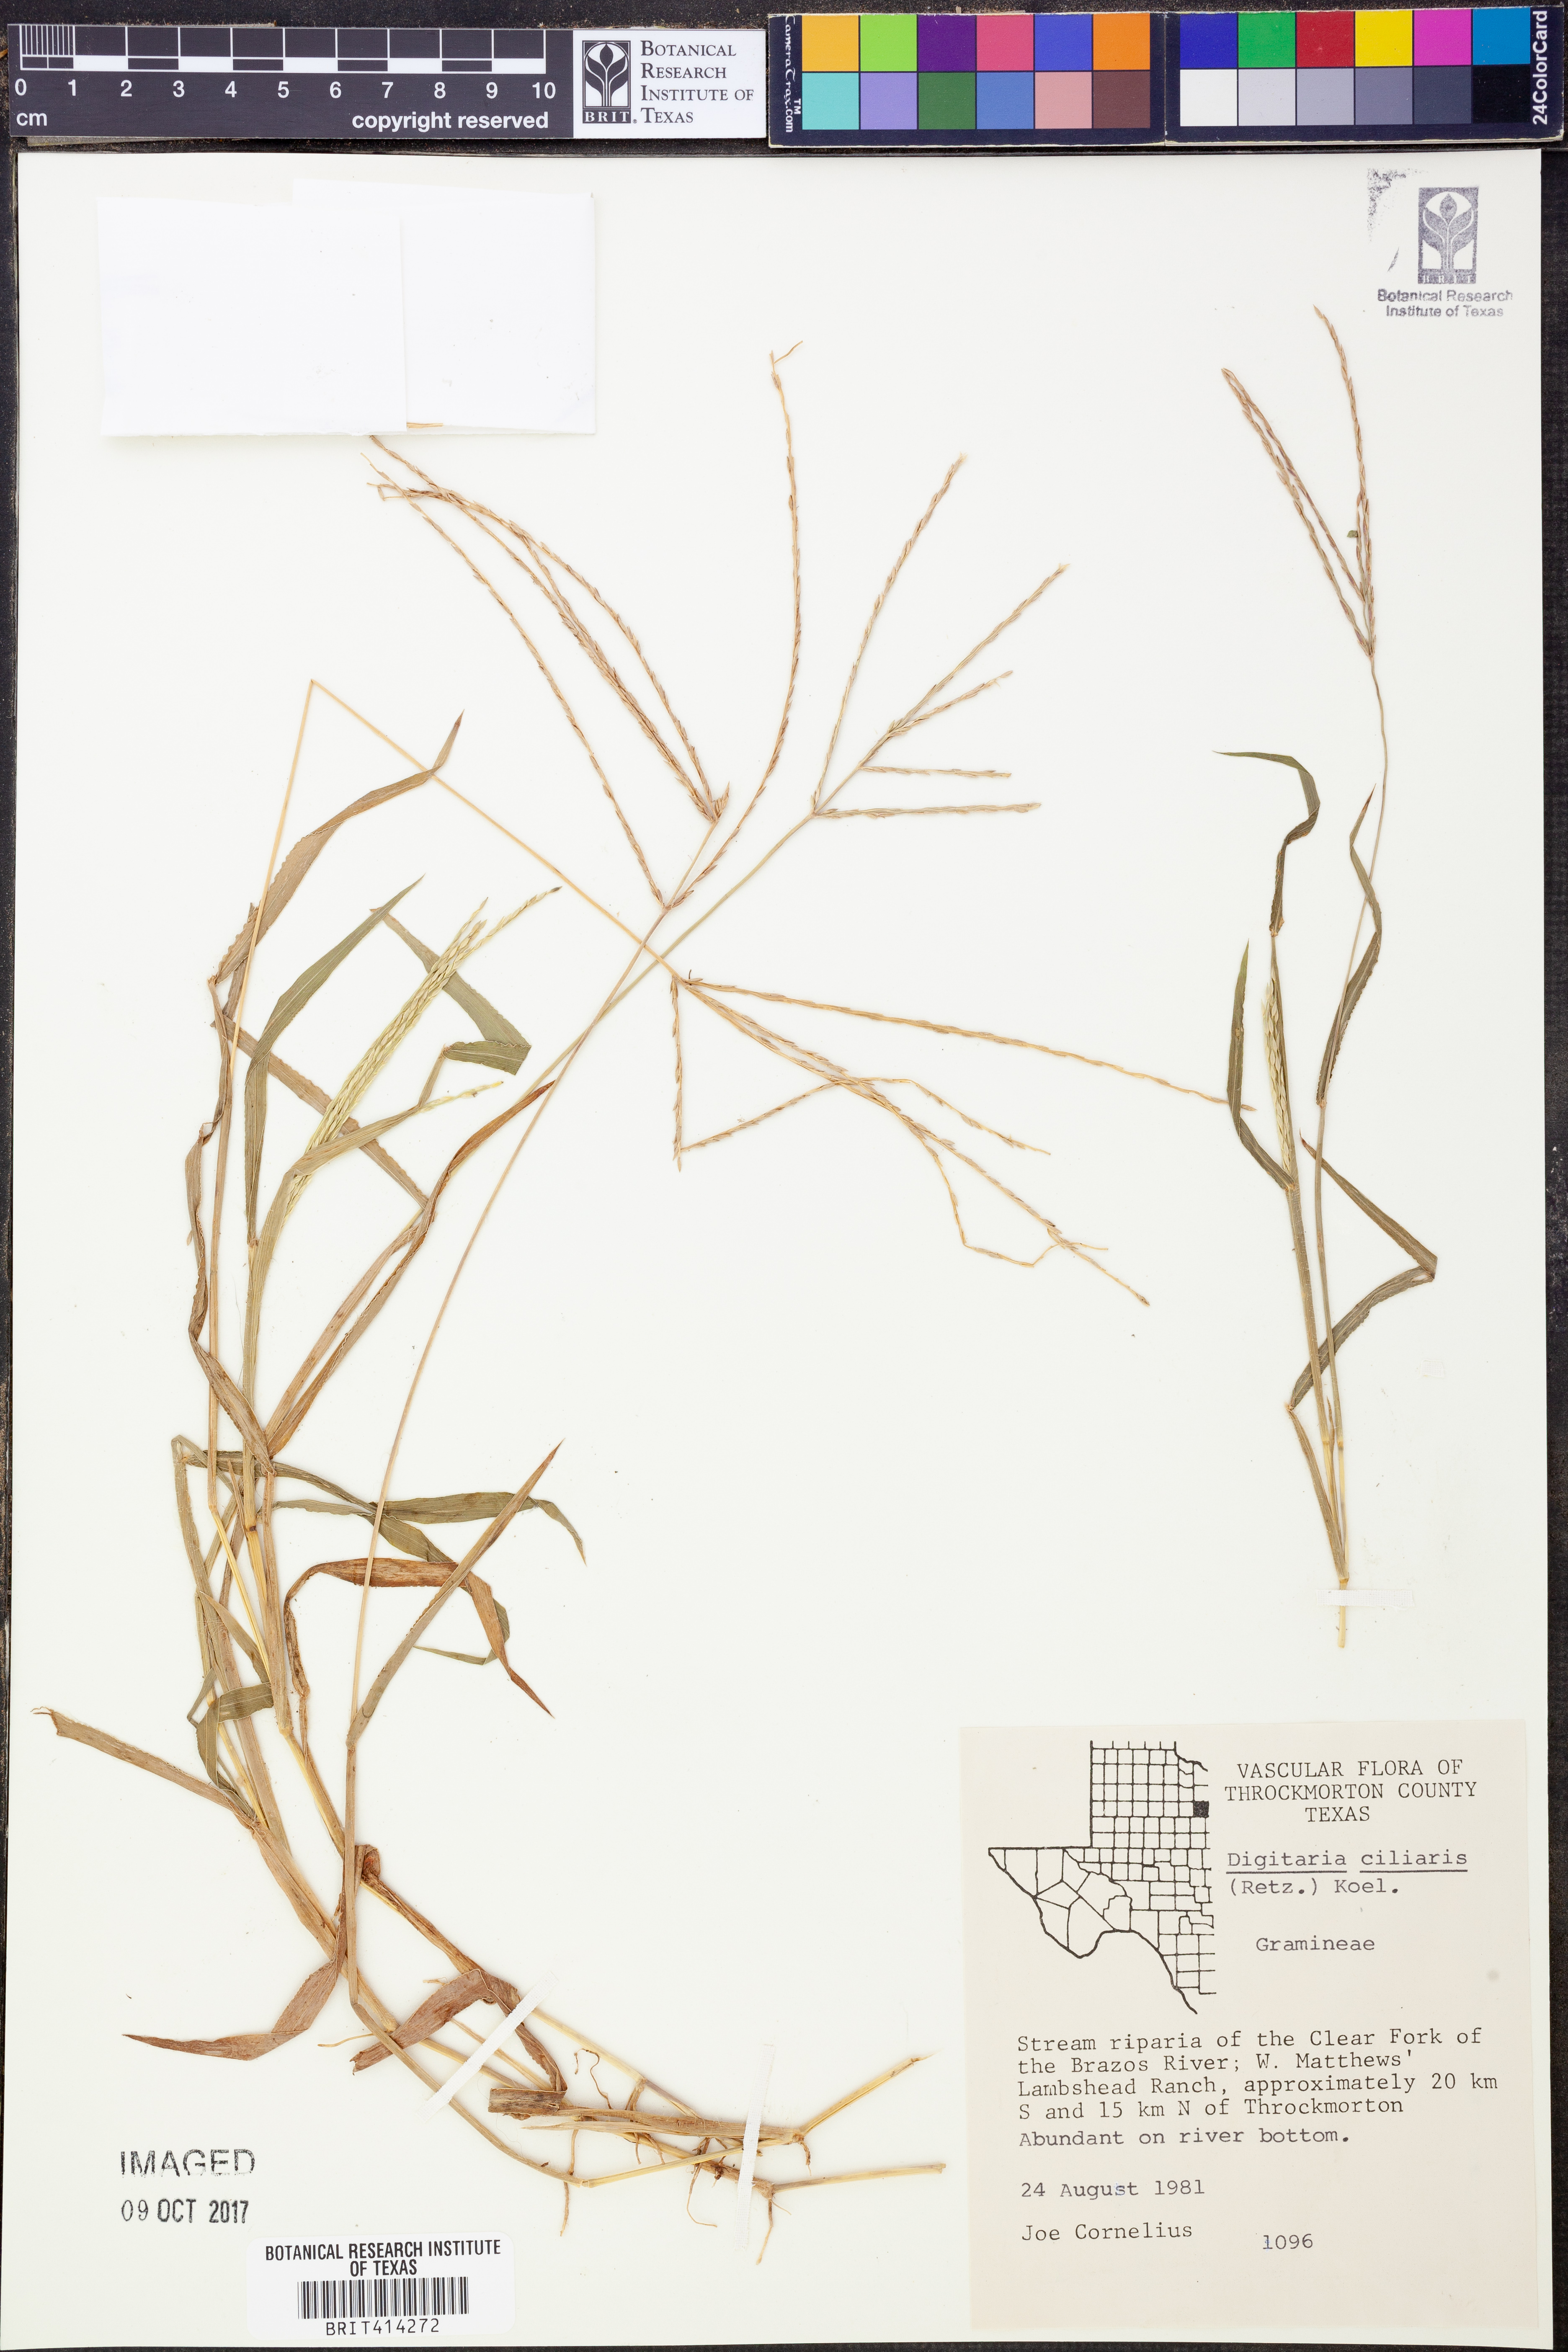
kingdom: Plantae
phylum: Tracheophyta
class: Liliopsida
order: Poales
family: Poaceae
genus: Digitaria
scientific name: Digitaria ciliaris
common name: Tropical finger-grass
